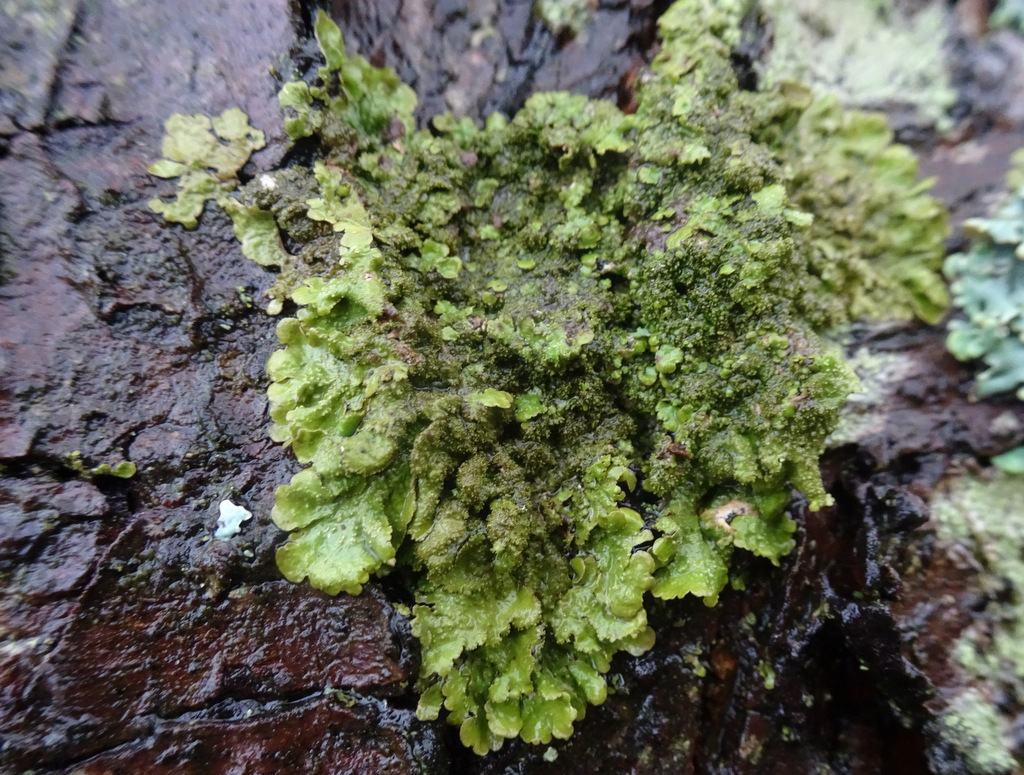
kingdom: Fungi
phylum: Ascomycota
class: Lecanoromycetes
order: Lecanorales
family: Parmeliaceae
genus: Melanohalea
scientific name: Melanohalea exasperatula
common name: kølle-skållav
